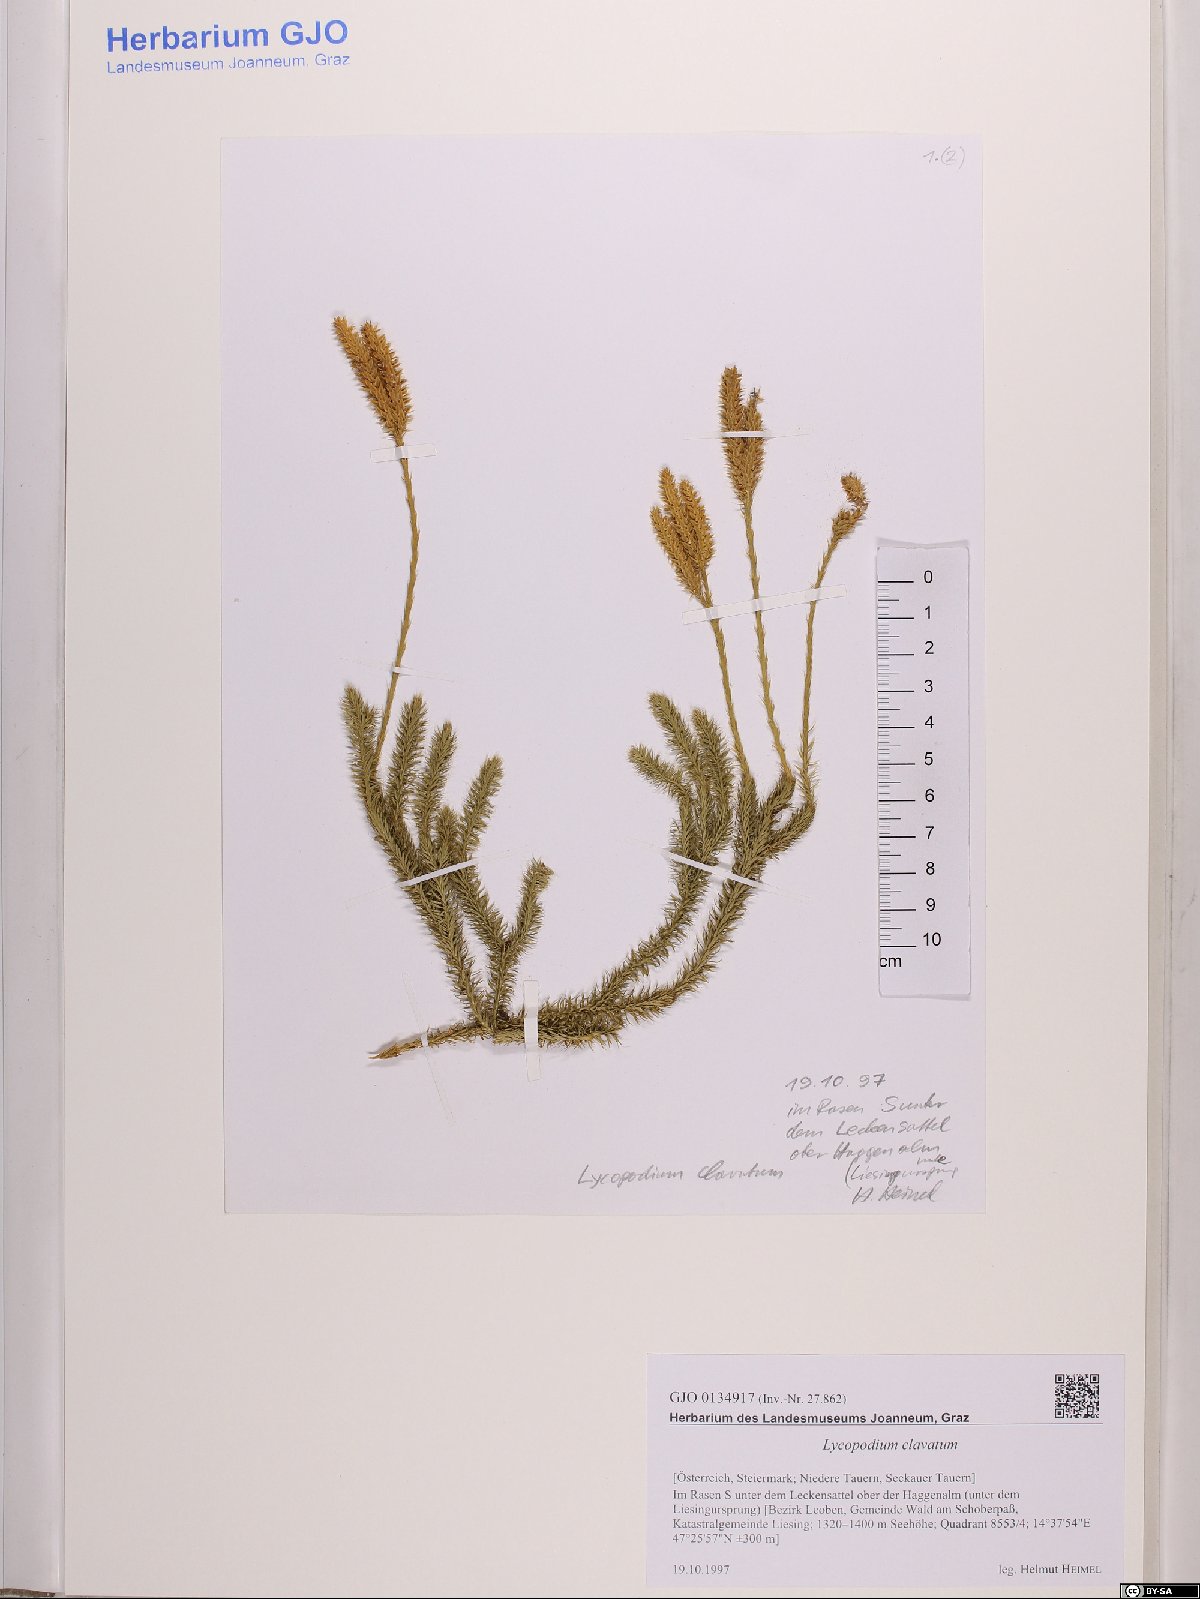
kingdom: Plantae
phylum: Tracheophyta
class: Lycopodiopsida
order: Lycopodiales
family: Lycopodiaceae
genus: Lycopodium
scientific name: Lycopodium clavatum
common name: Stag's-horn clubmoss
